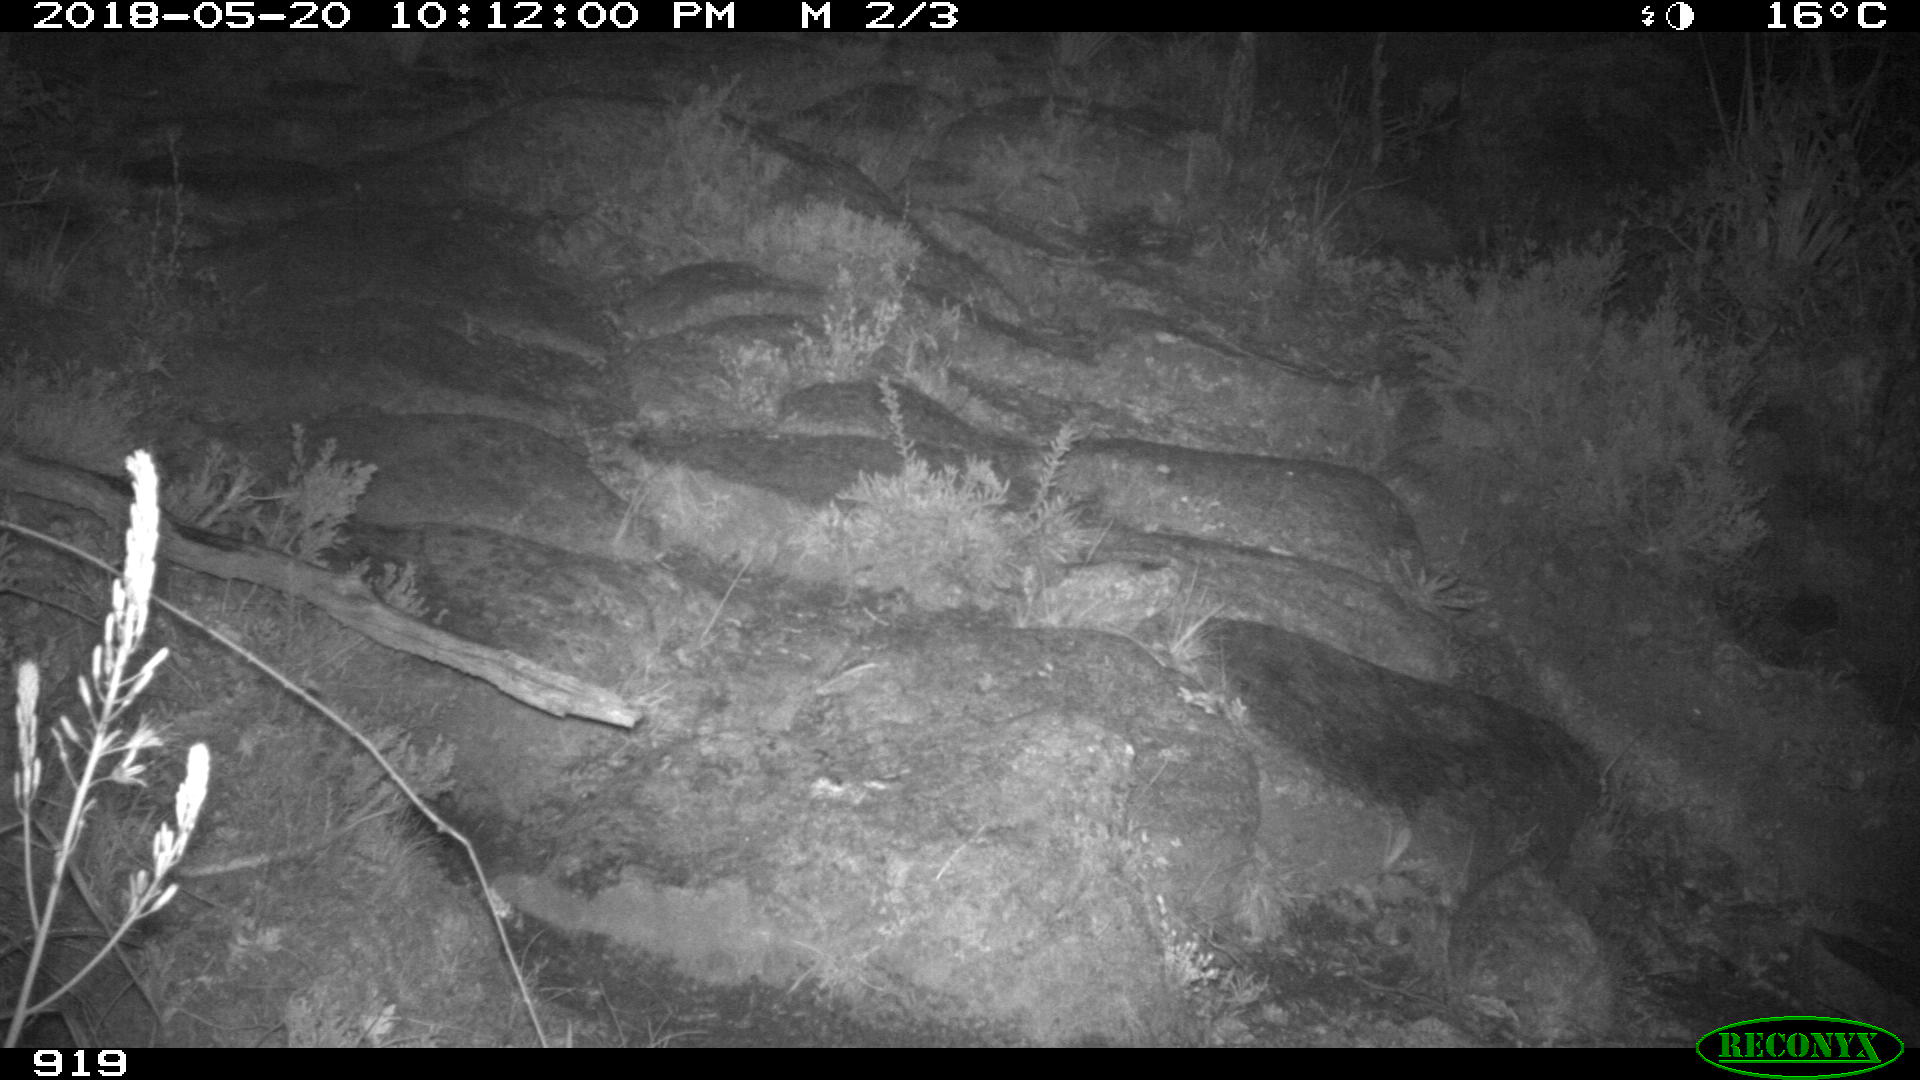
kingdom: Animalia
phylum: Chordata
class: Mammalia
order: Artiodactyla
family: Bovidae
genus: Bos
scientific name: Bos taurus
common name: Domesticated cattle
